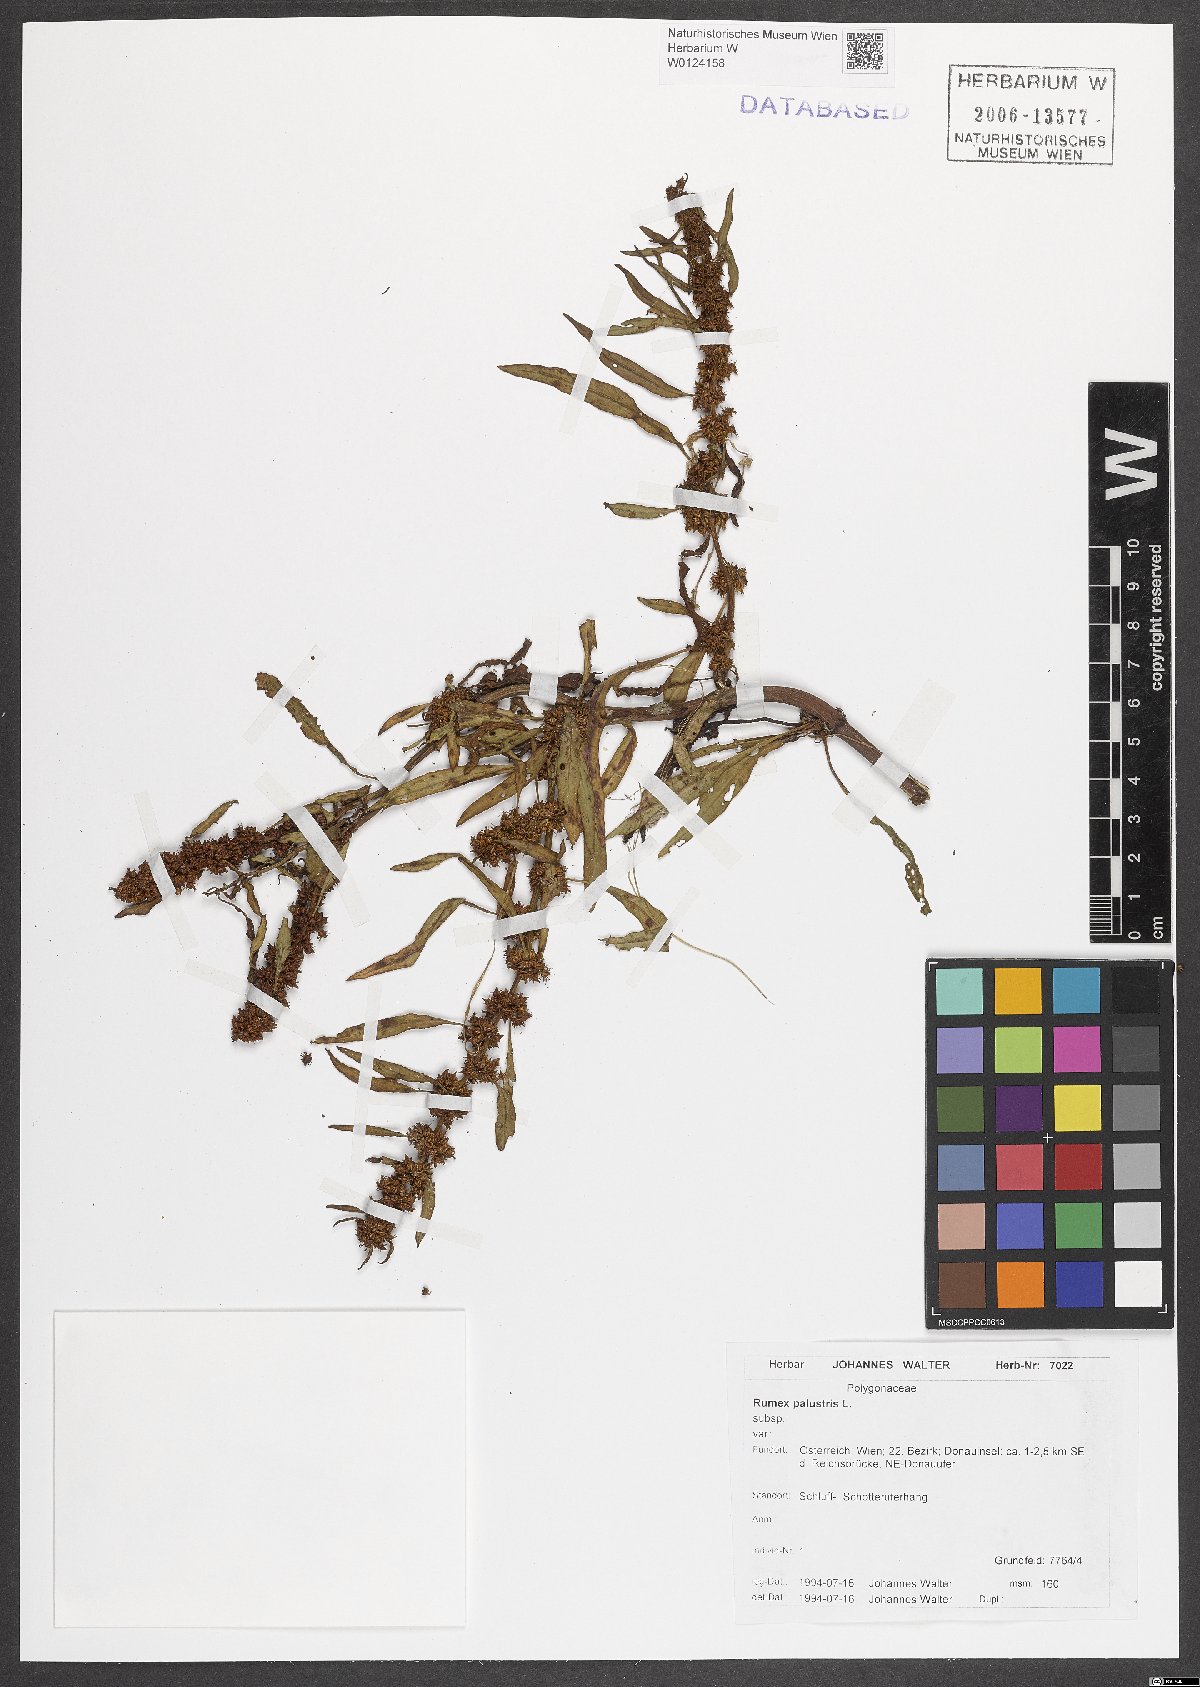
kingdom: Plantae
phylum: Tracheophyta
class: Magnoliopsida
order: Caryophyllales
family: Polygonaceae
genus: Rumex
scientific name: Rumex palustris
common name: Marsh dock
